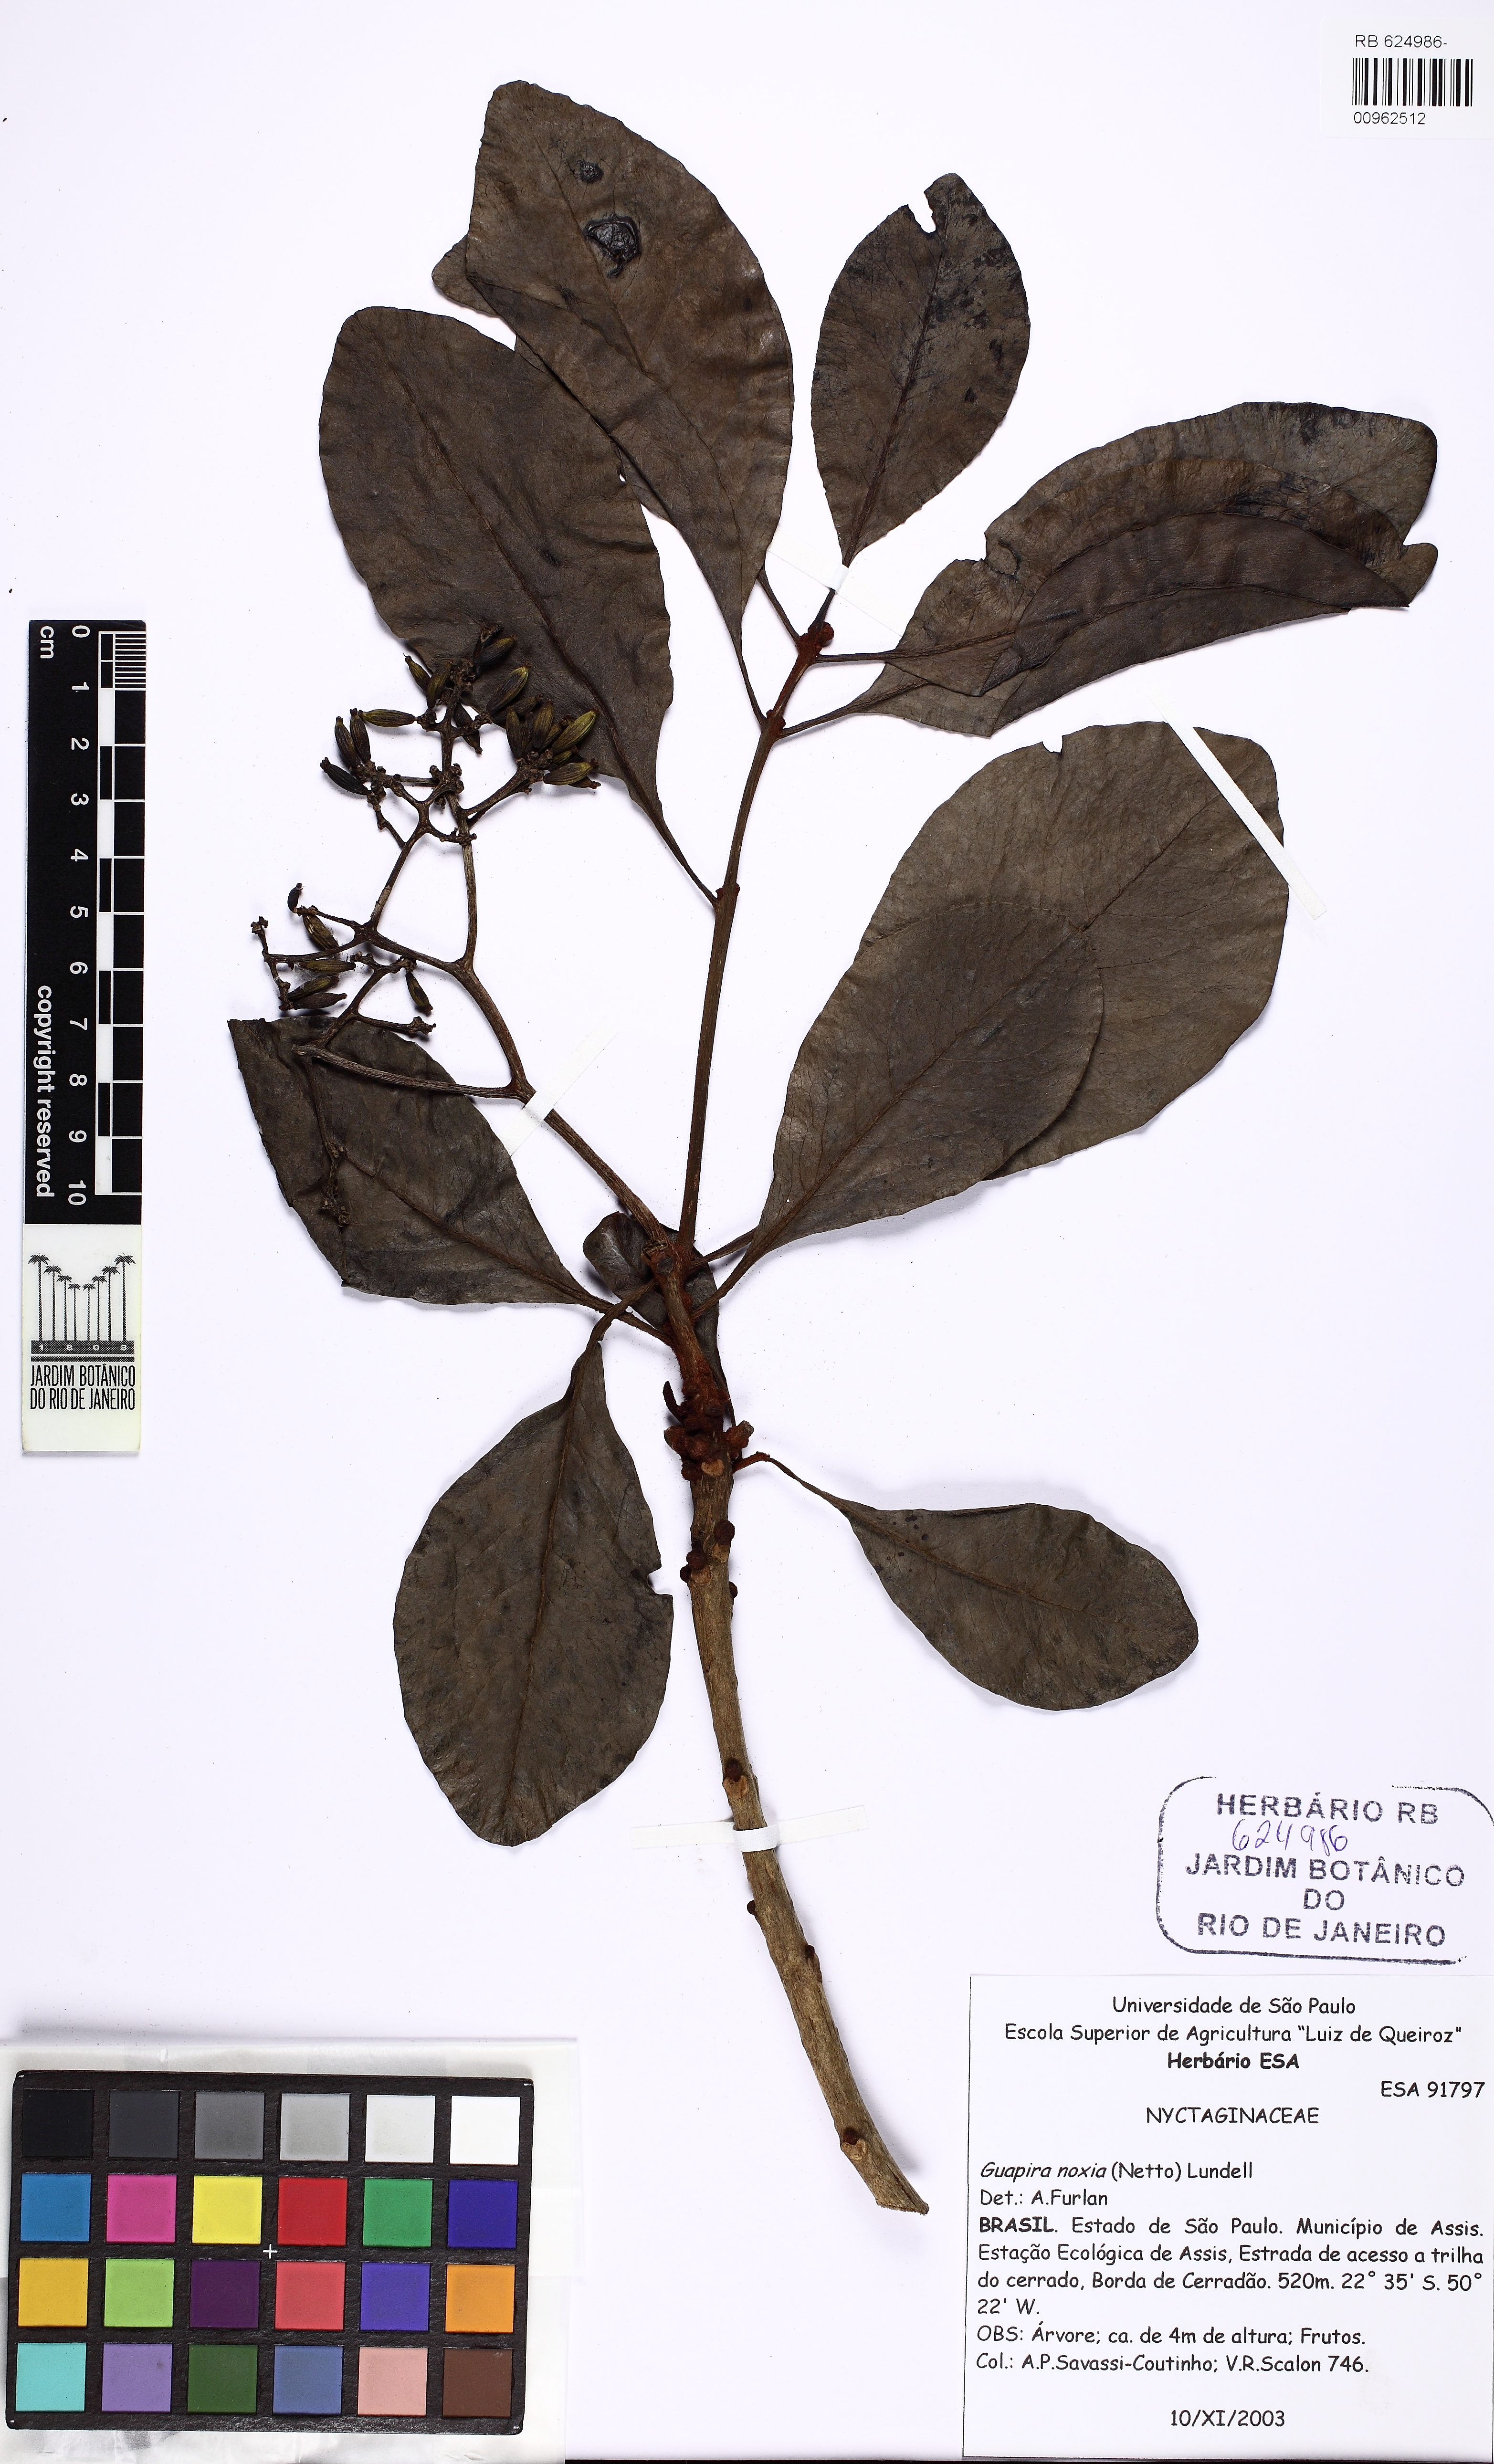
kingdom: Plantae
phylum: Tracheophyta
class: Magnoliopsida
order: Caryophyllales
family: Nyctaginaceae
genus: Guapira
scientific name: Guapira noxia
